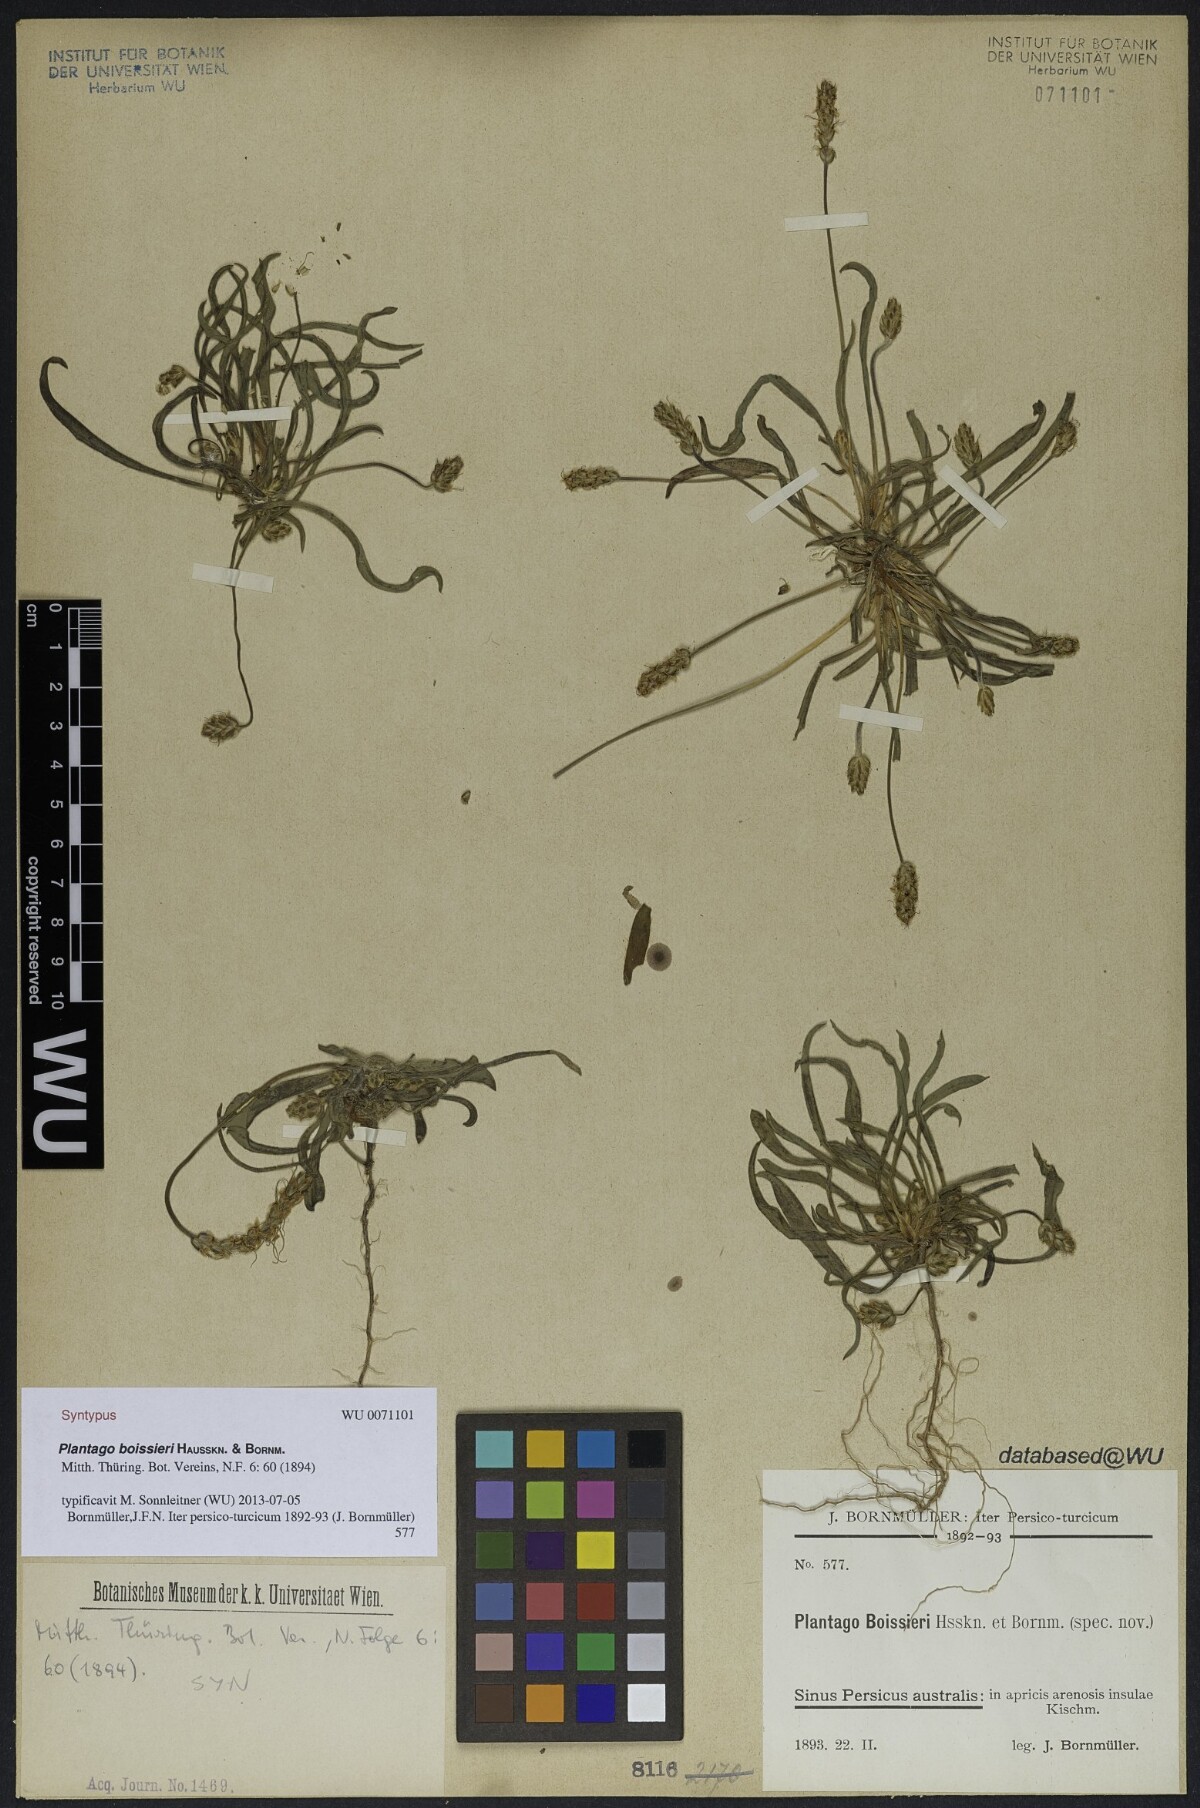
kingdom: Plantae
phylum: Tracheophyta
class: Magnoliopsida
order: Lamiales
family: Plantaginaceae
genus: Plantago
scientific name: Plantago boissieri
